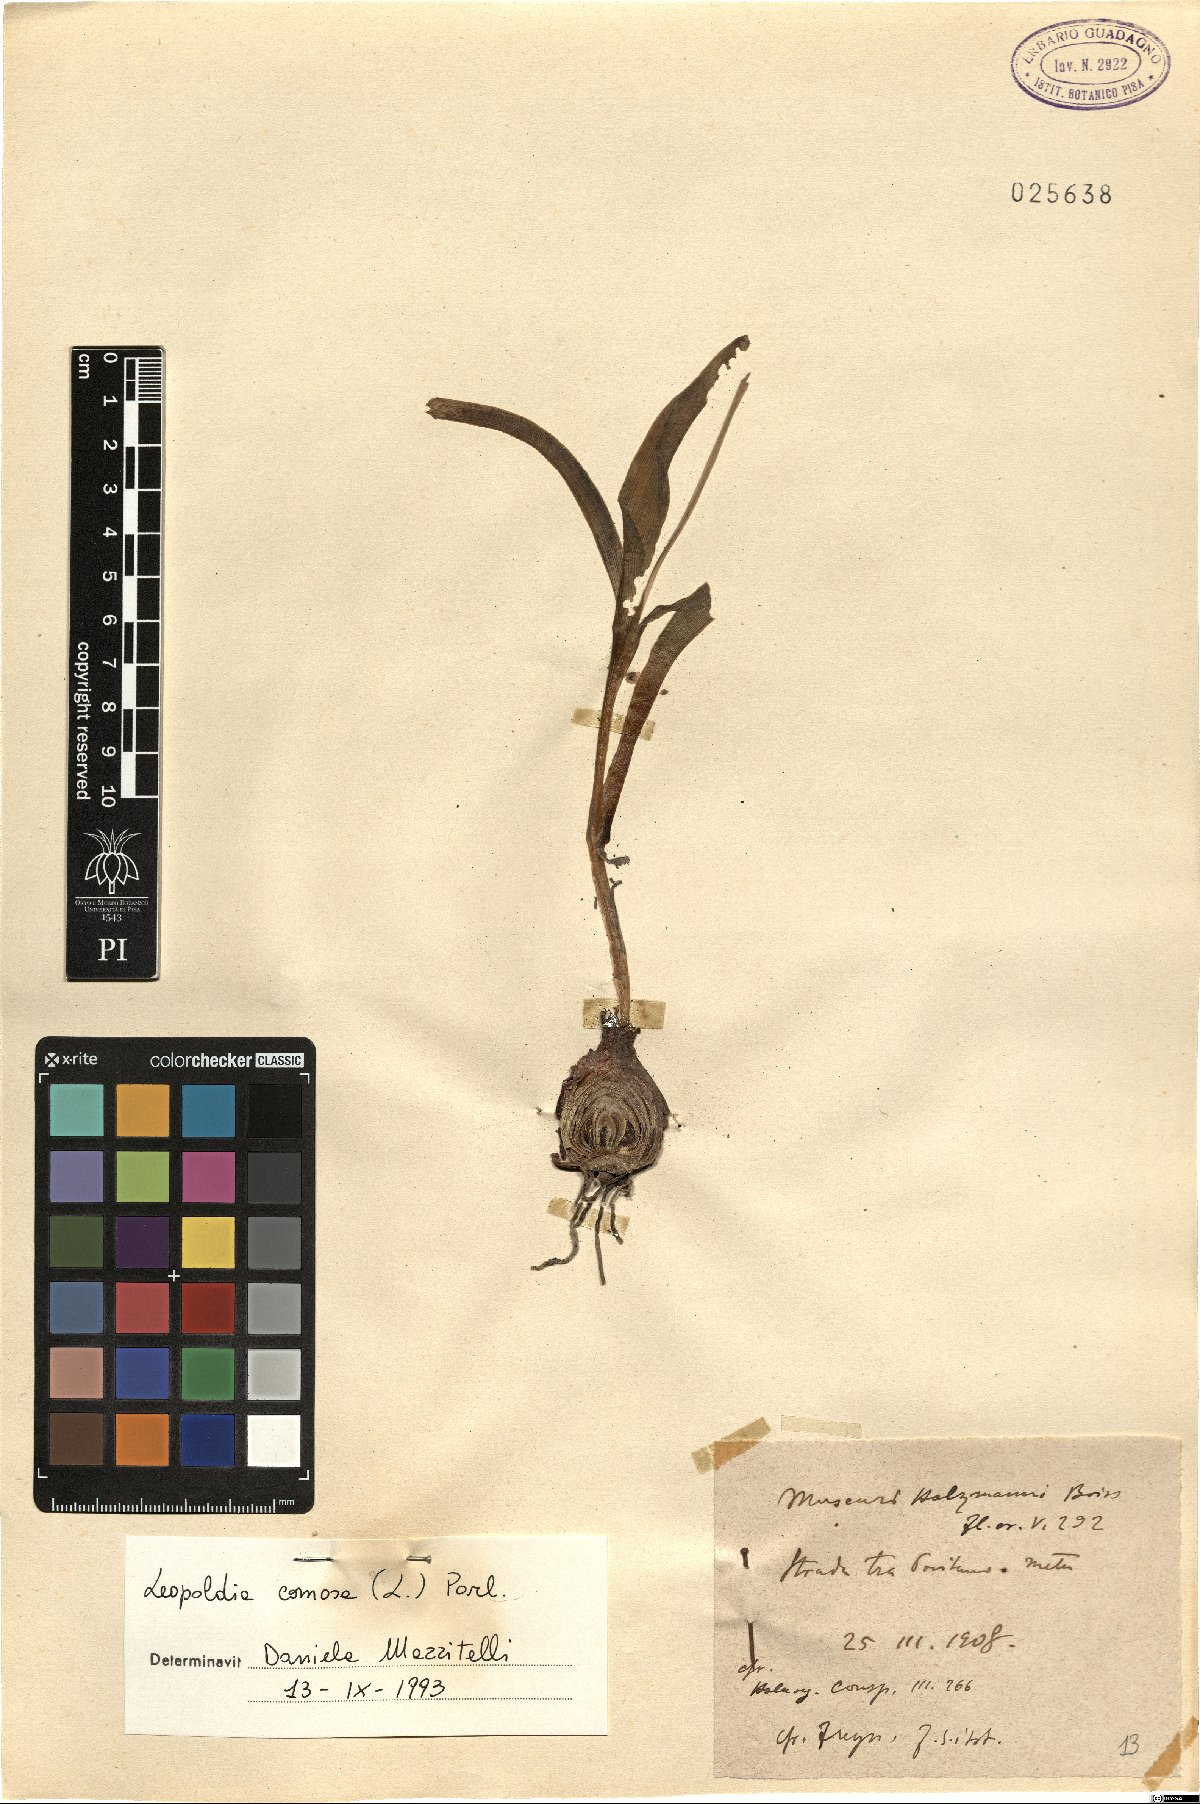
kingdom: Plantae
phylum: Tracheophyta
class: Liliopsida
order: Asparagales
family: Asparagaceae
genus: Muscari
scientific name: Muscari comosum
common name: Tassel hyacinth
